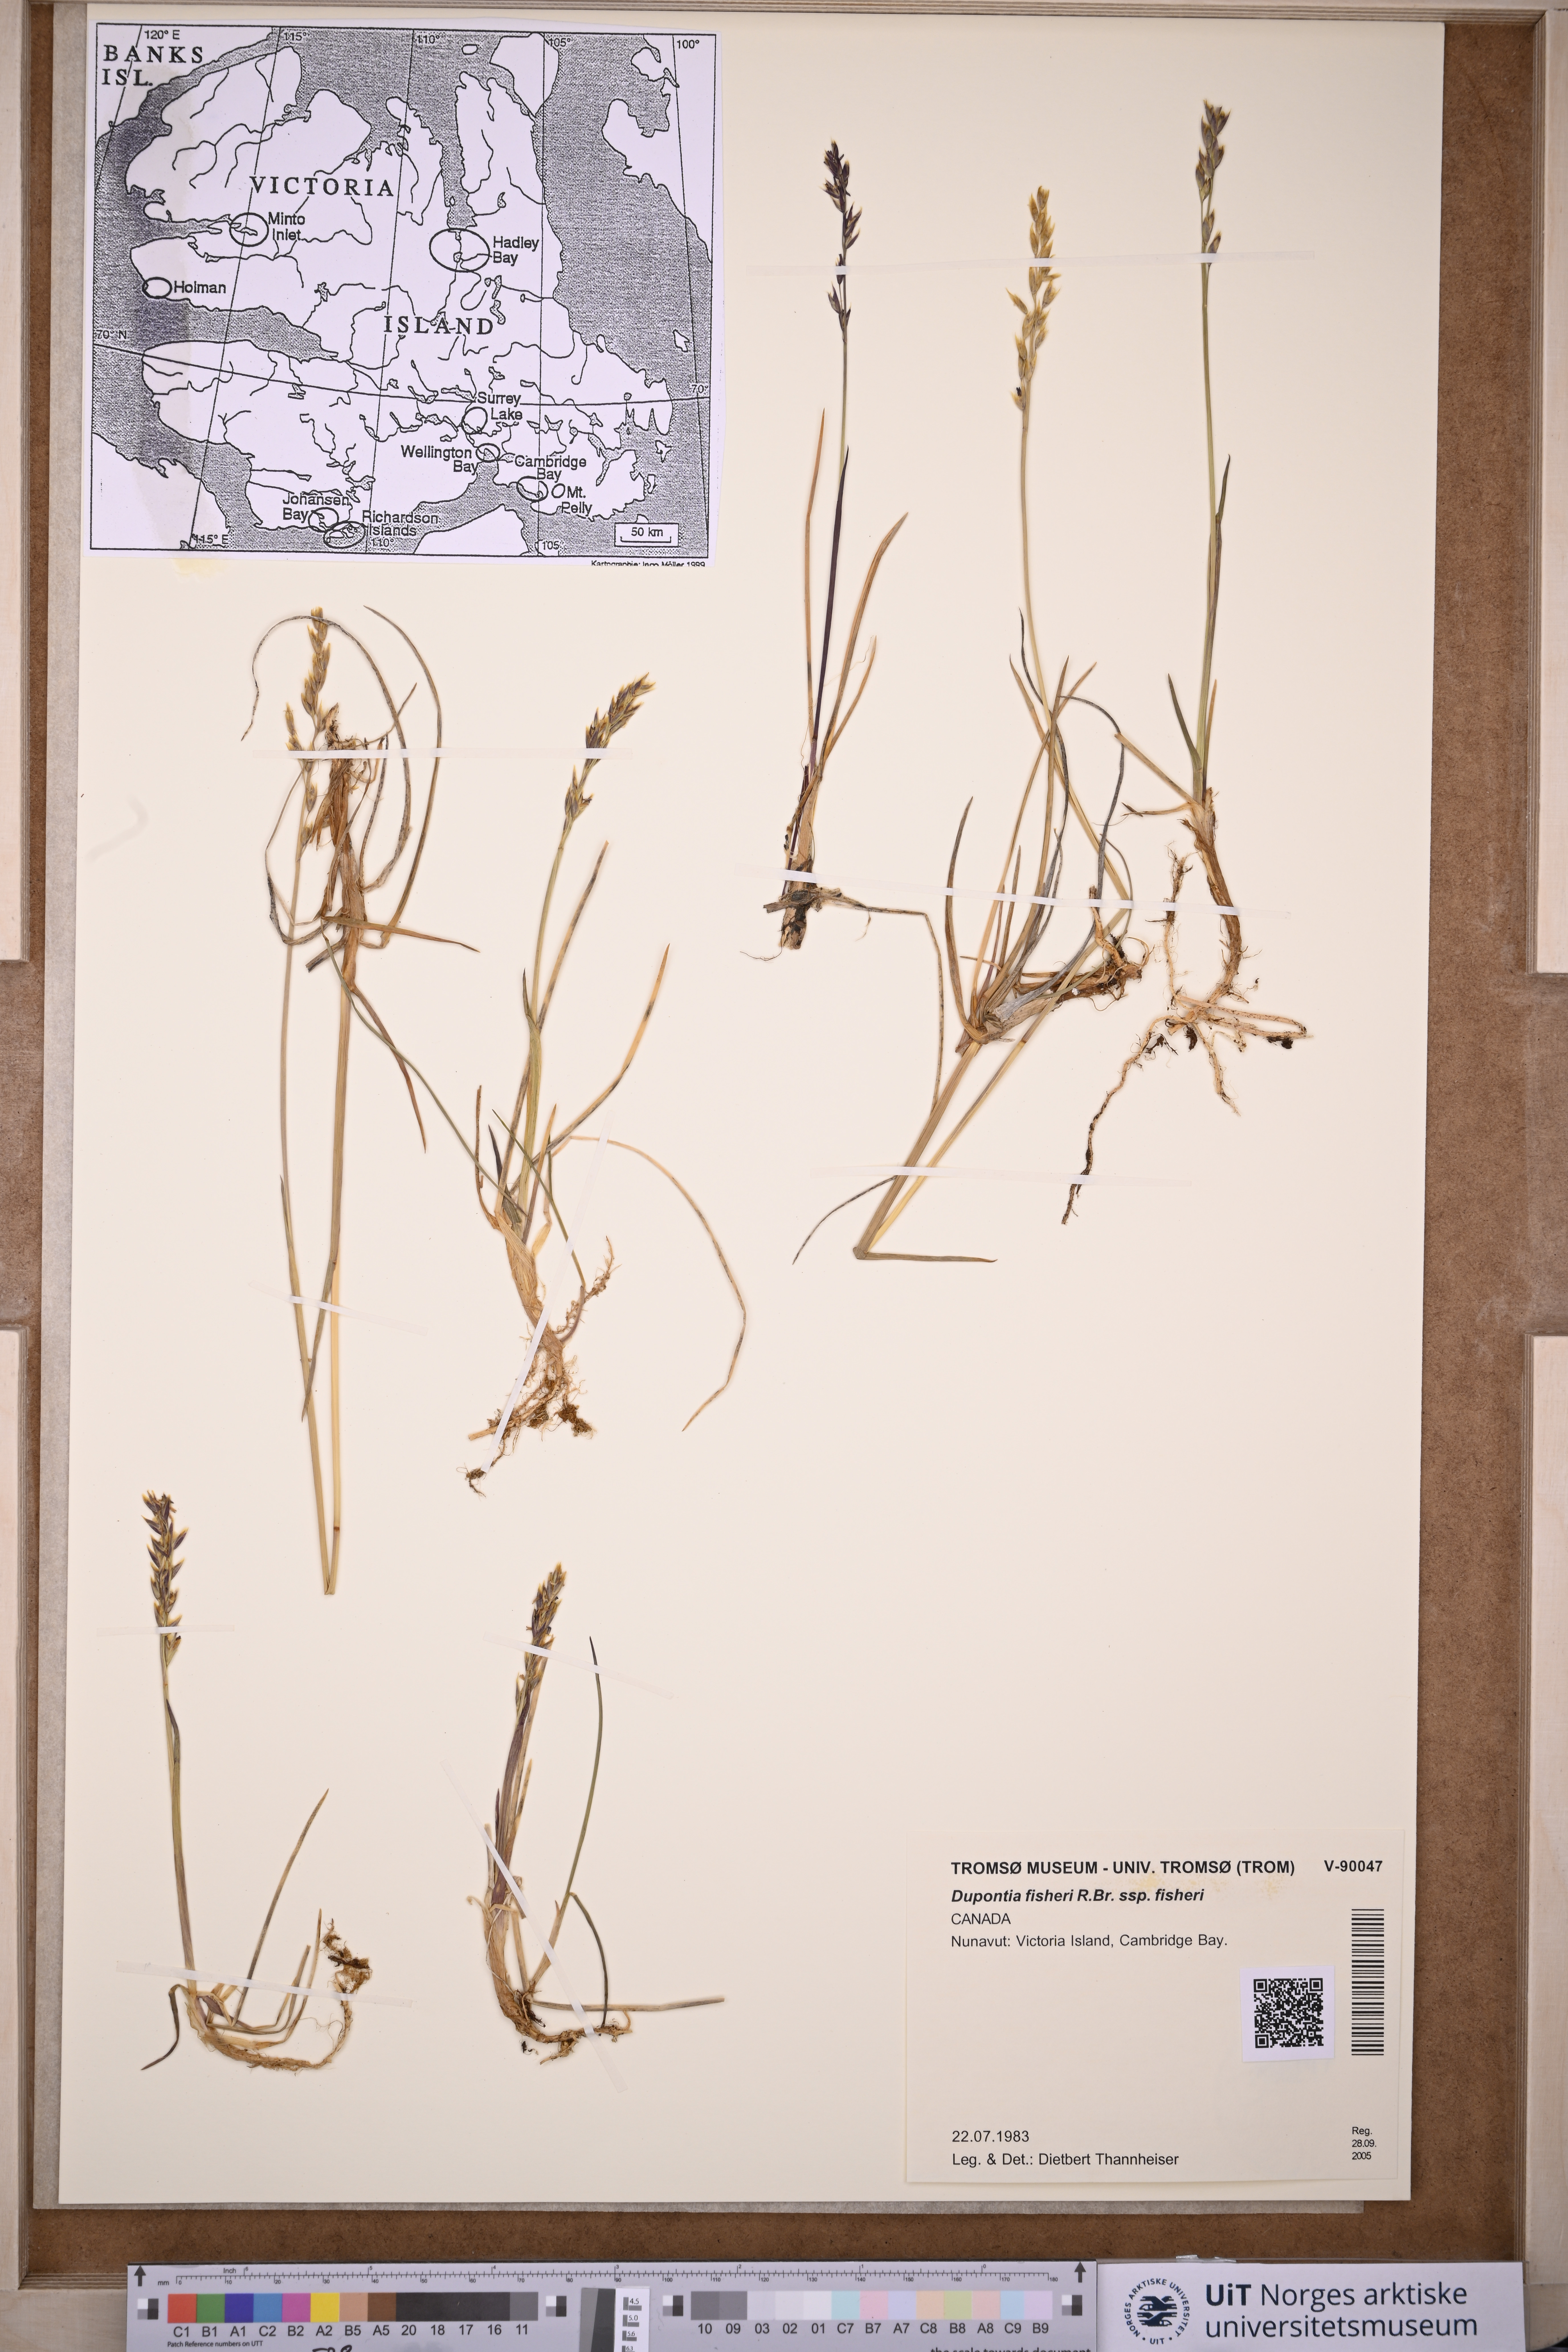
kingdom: Plantae
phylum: Tracheophyta
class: Liliopsida
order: Poales
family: Poaceae
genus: Dupontia
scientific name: Dupontia fisheri
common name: Tundra grass
